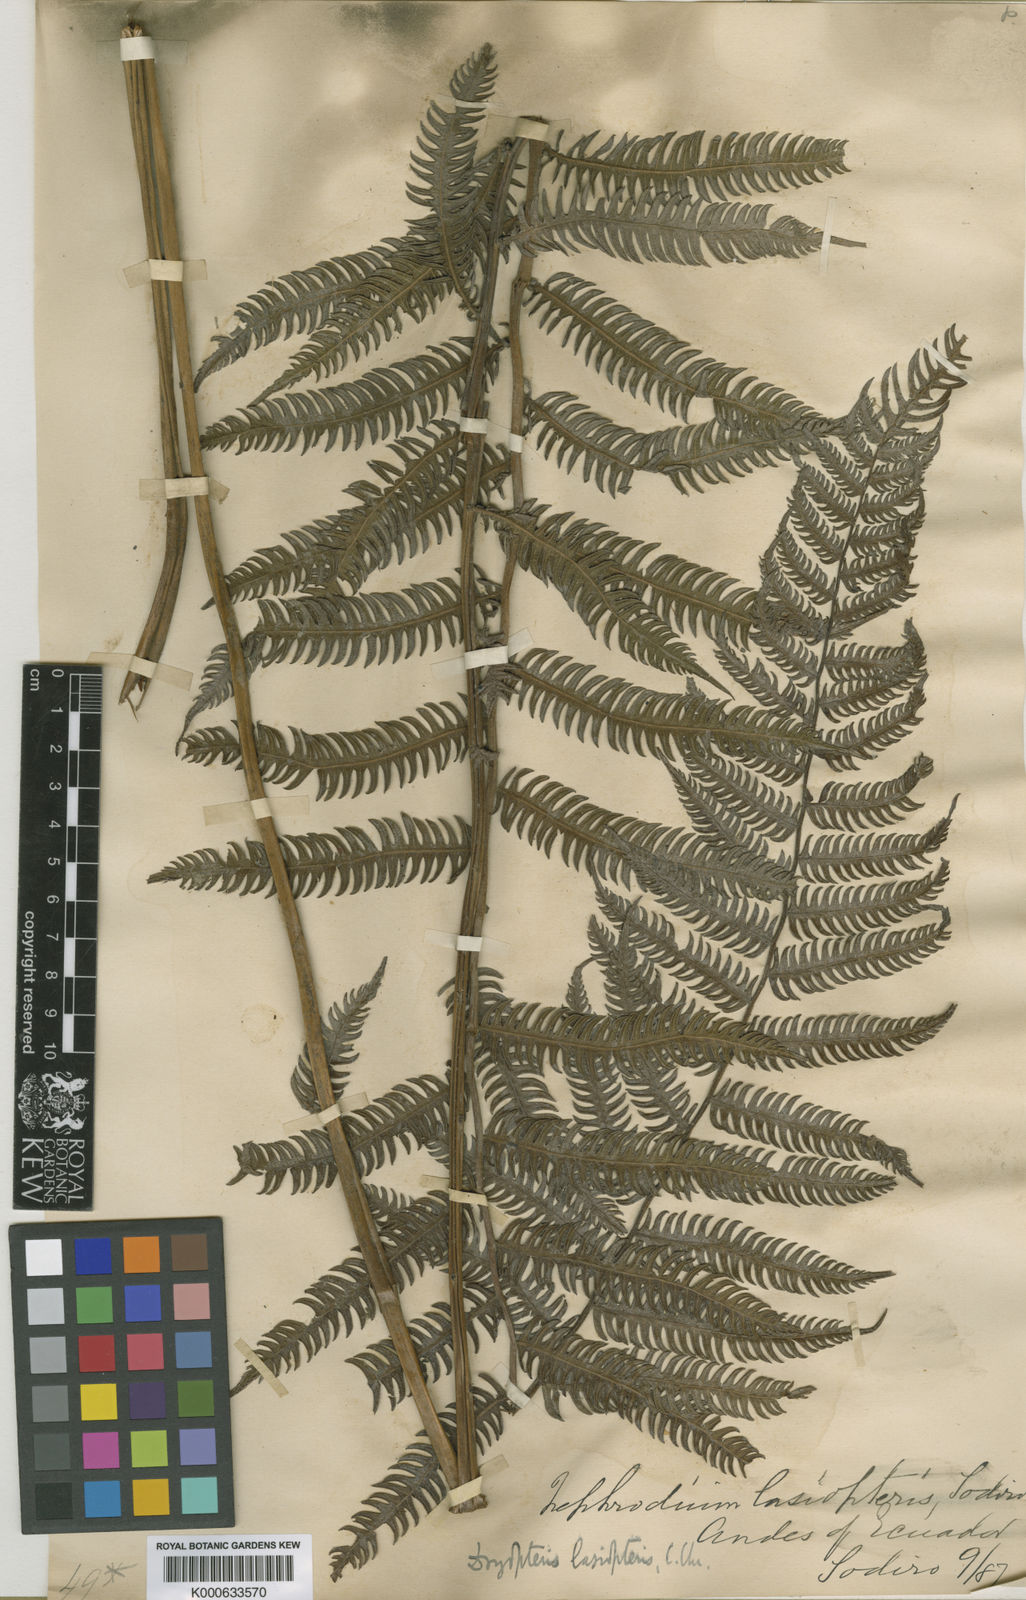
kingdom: Plantae
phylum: Tracheophyta
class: Polypodiopsida
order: Polypodiales
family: Thelypteridaceae
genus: Amauropelta
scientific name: Amauropelta rudis
